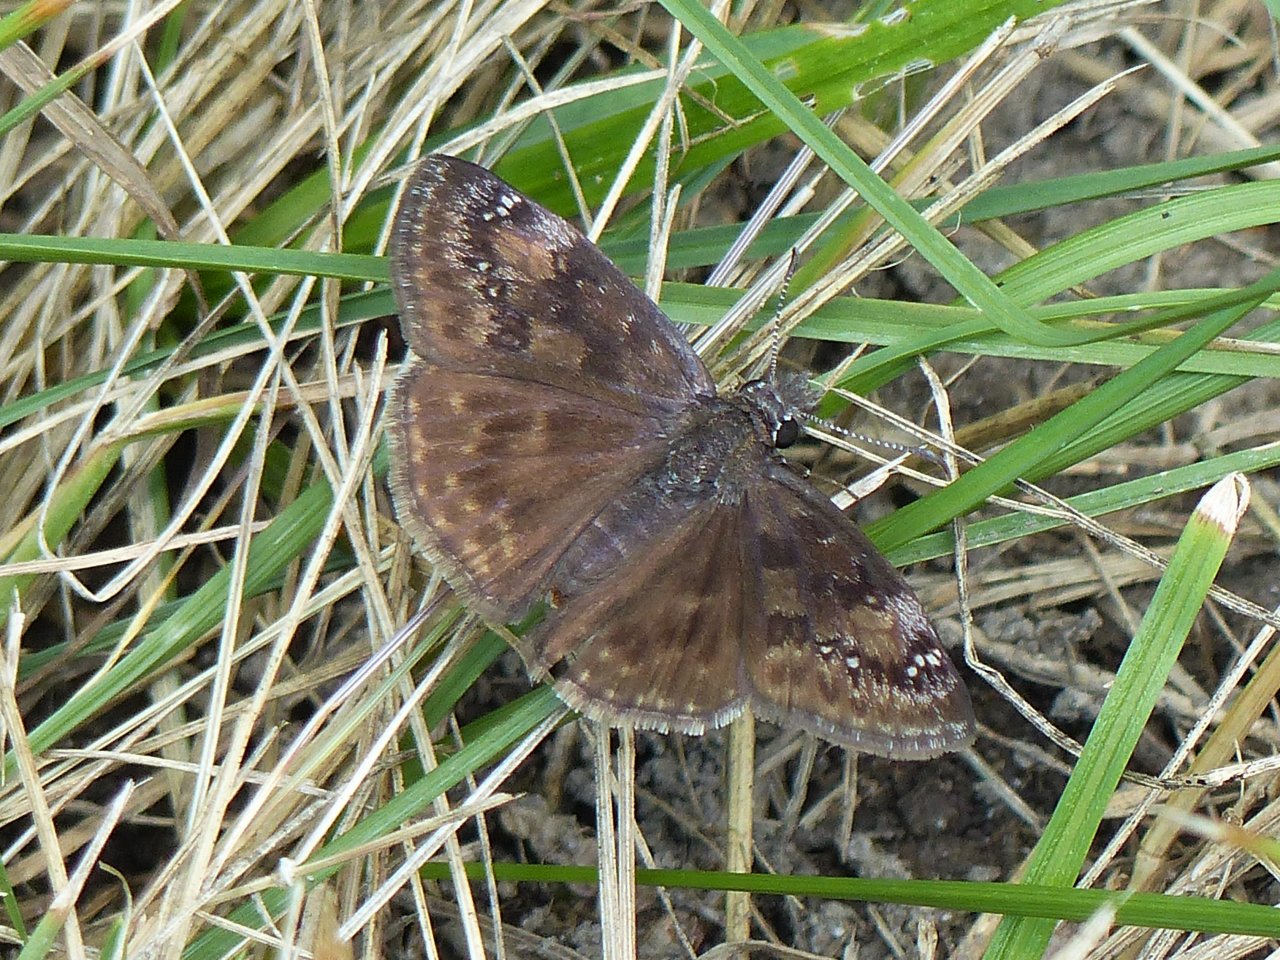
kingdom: Animalia
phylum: Arthropoda
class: Insecta
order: Lepidoptera
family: Hesperiidae
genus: Gesta
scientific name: Gesta
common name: Wild Indigo Duskywing
